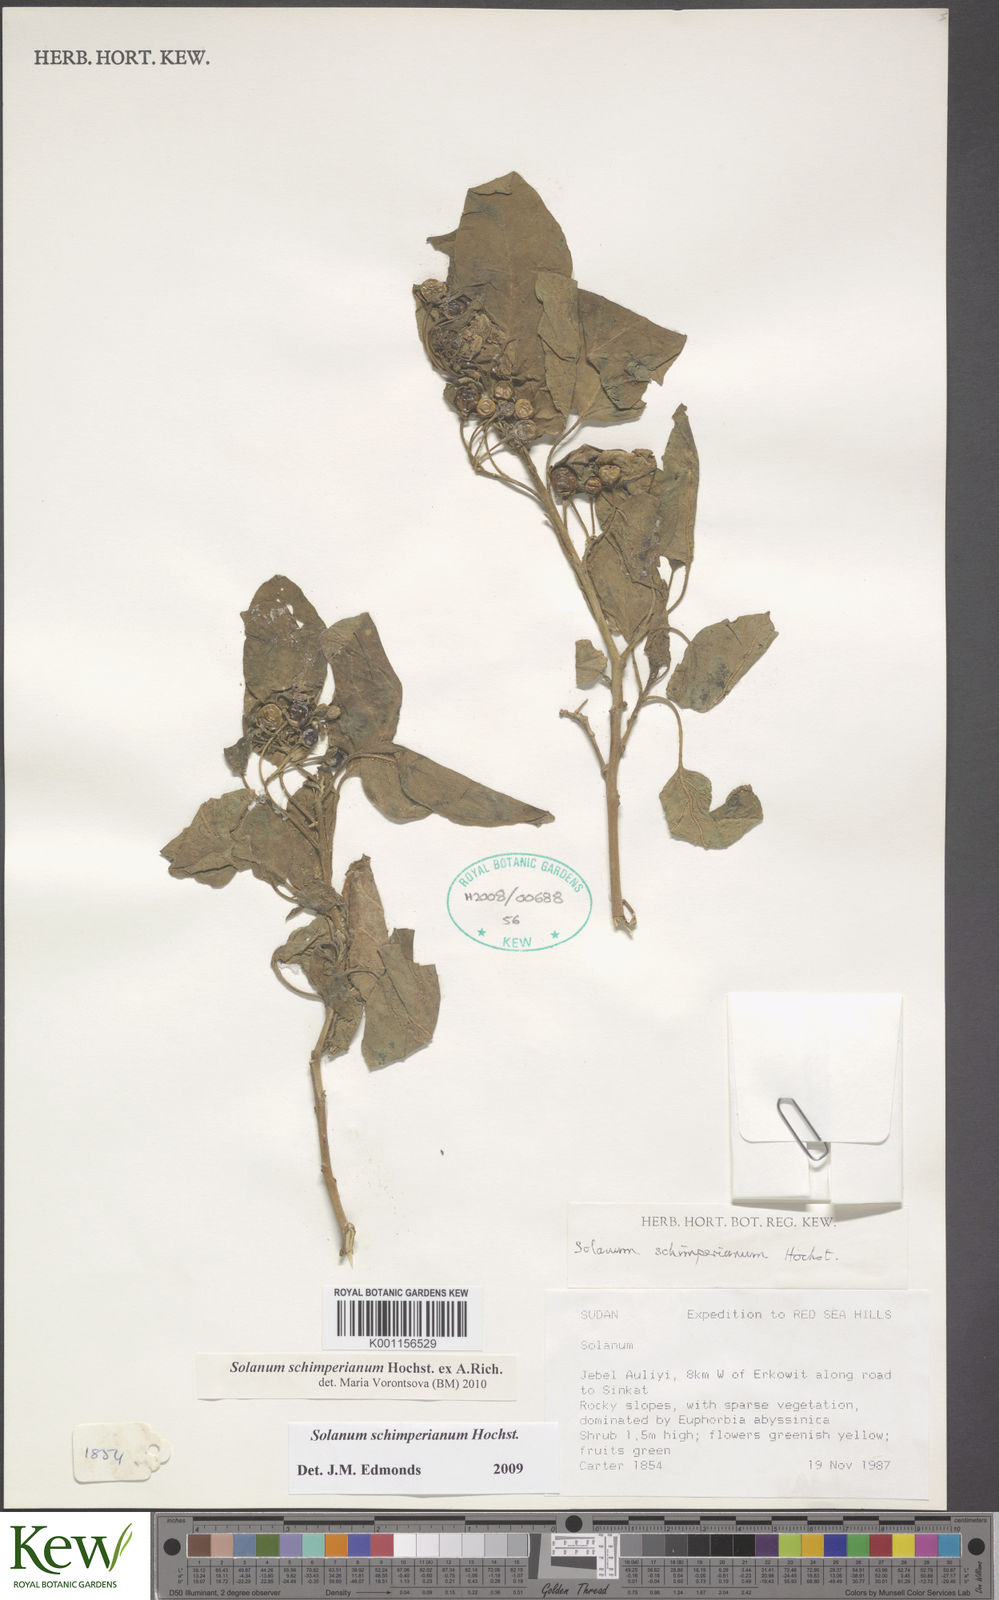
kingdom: Plantae
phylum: Tracheophyta
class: Magnoliopsida
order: Solanales
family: Solanaceae
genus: Solanum
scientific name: Solanum
